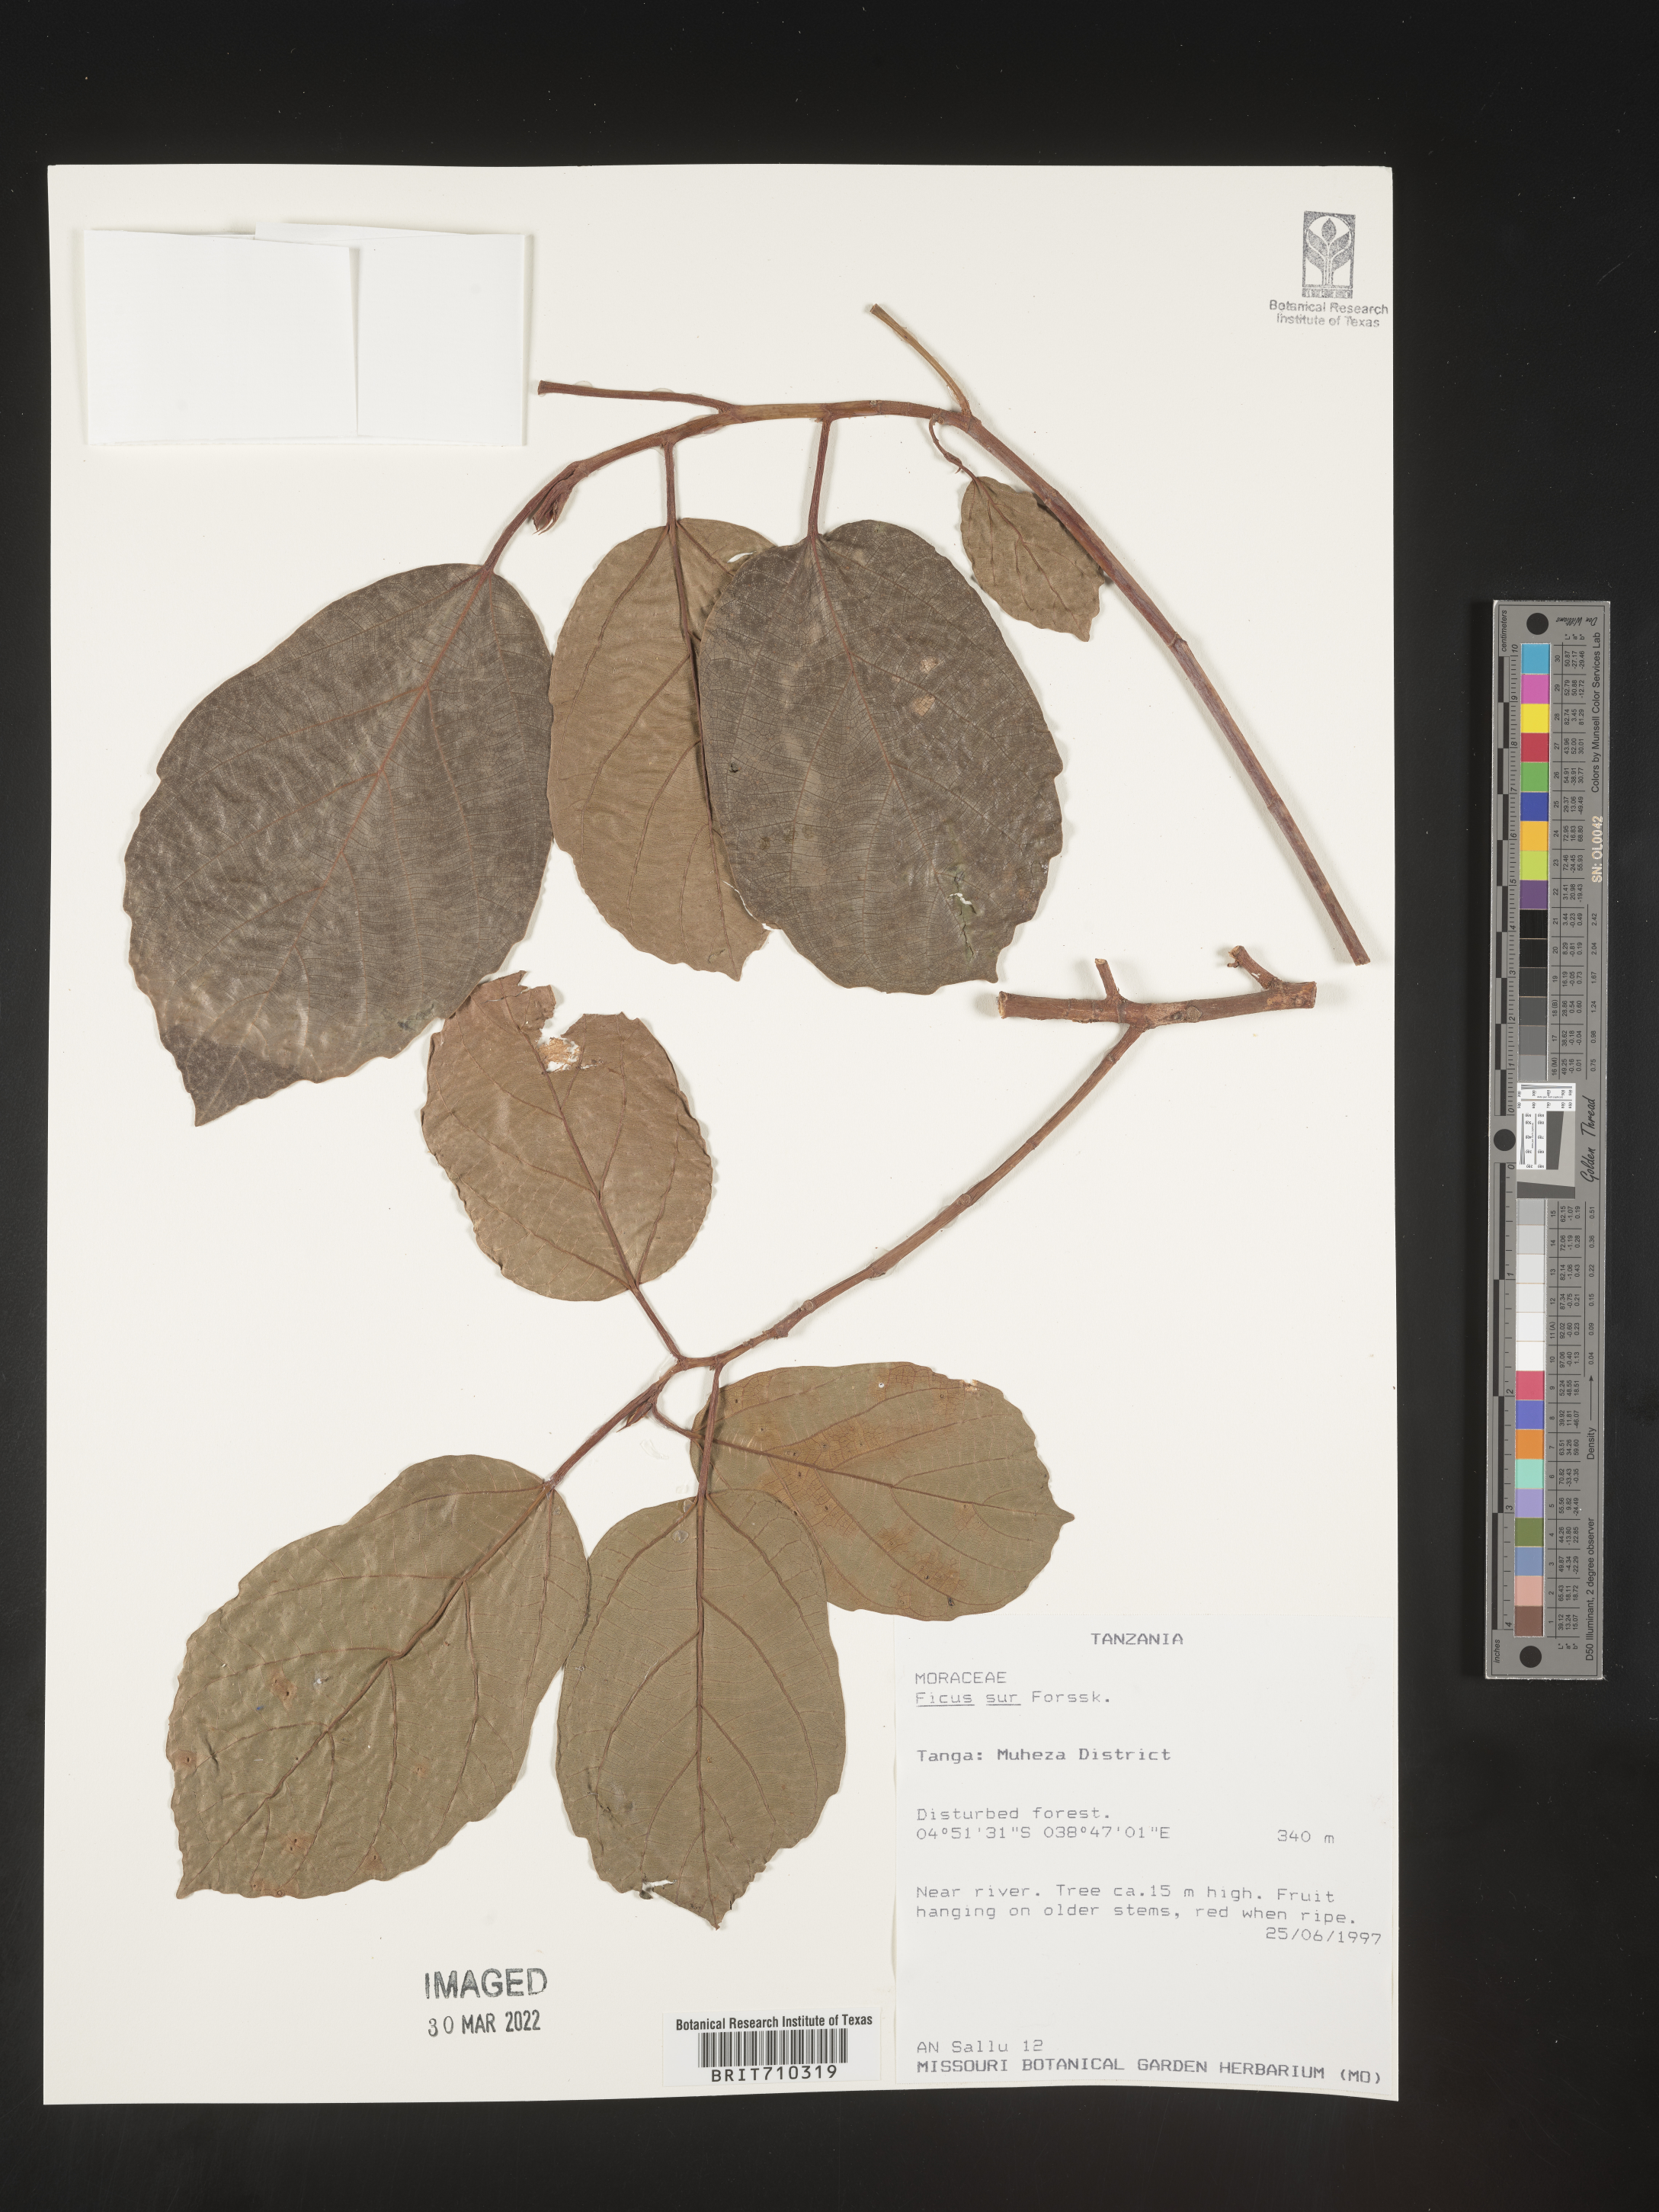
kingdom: Plantae
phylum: Tracheophyta
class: Magnoliopsida
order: Rosales
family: Moraceae
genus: Ficus
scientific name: Ficus
